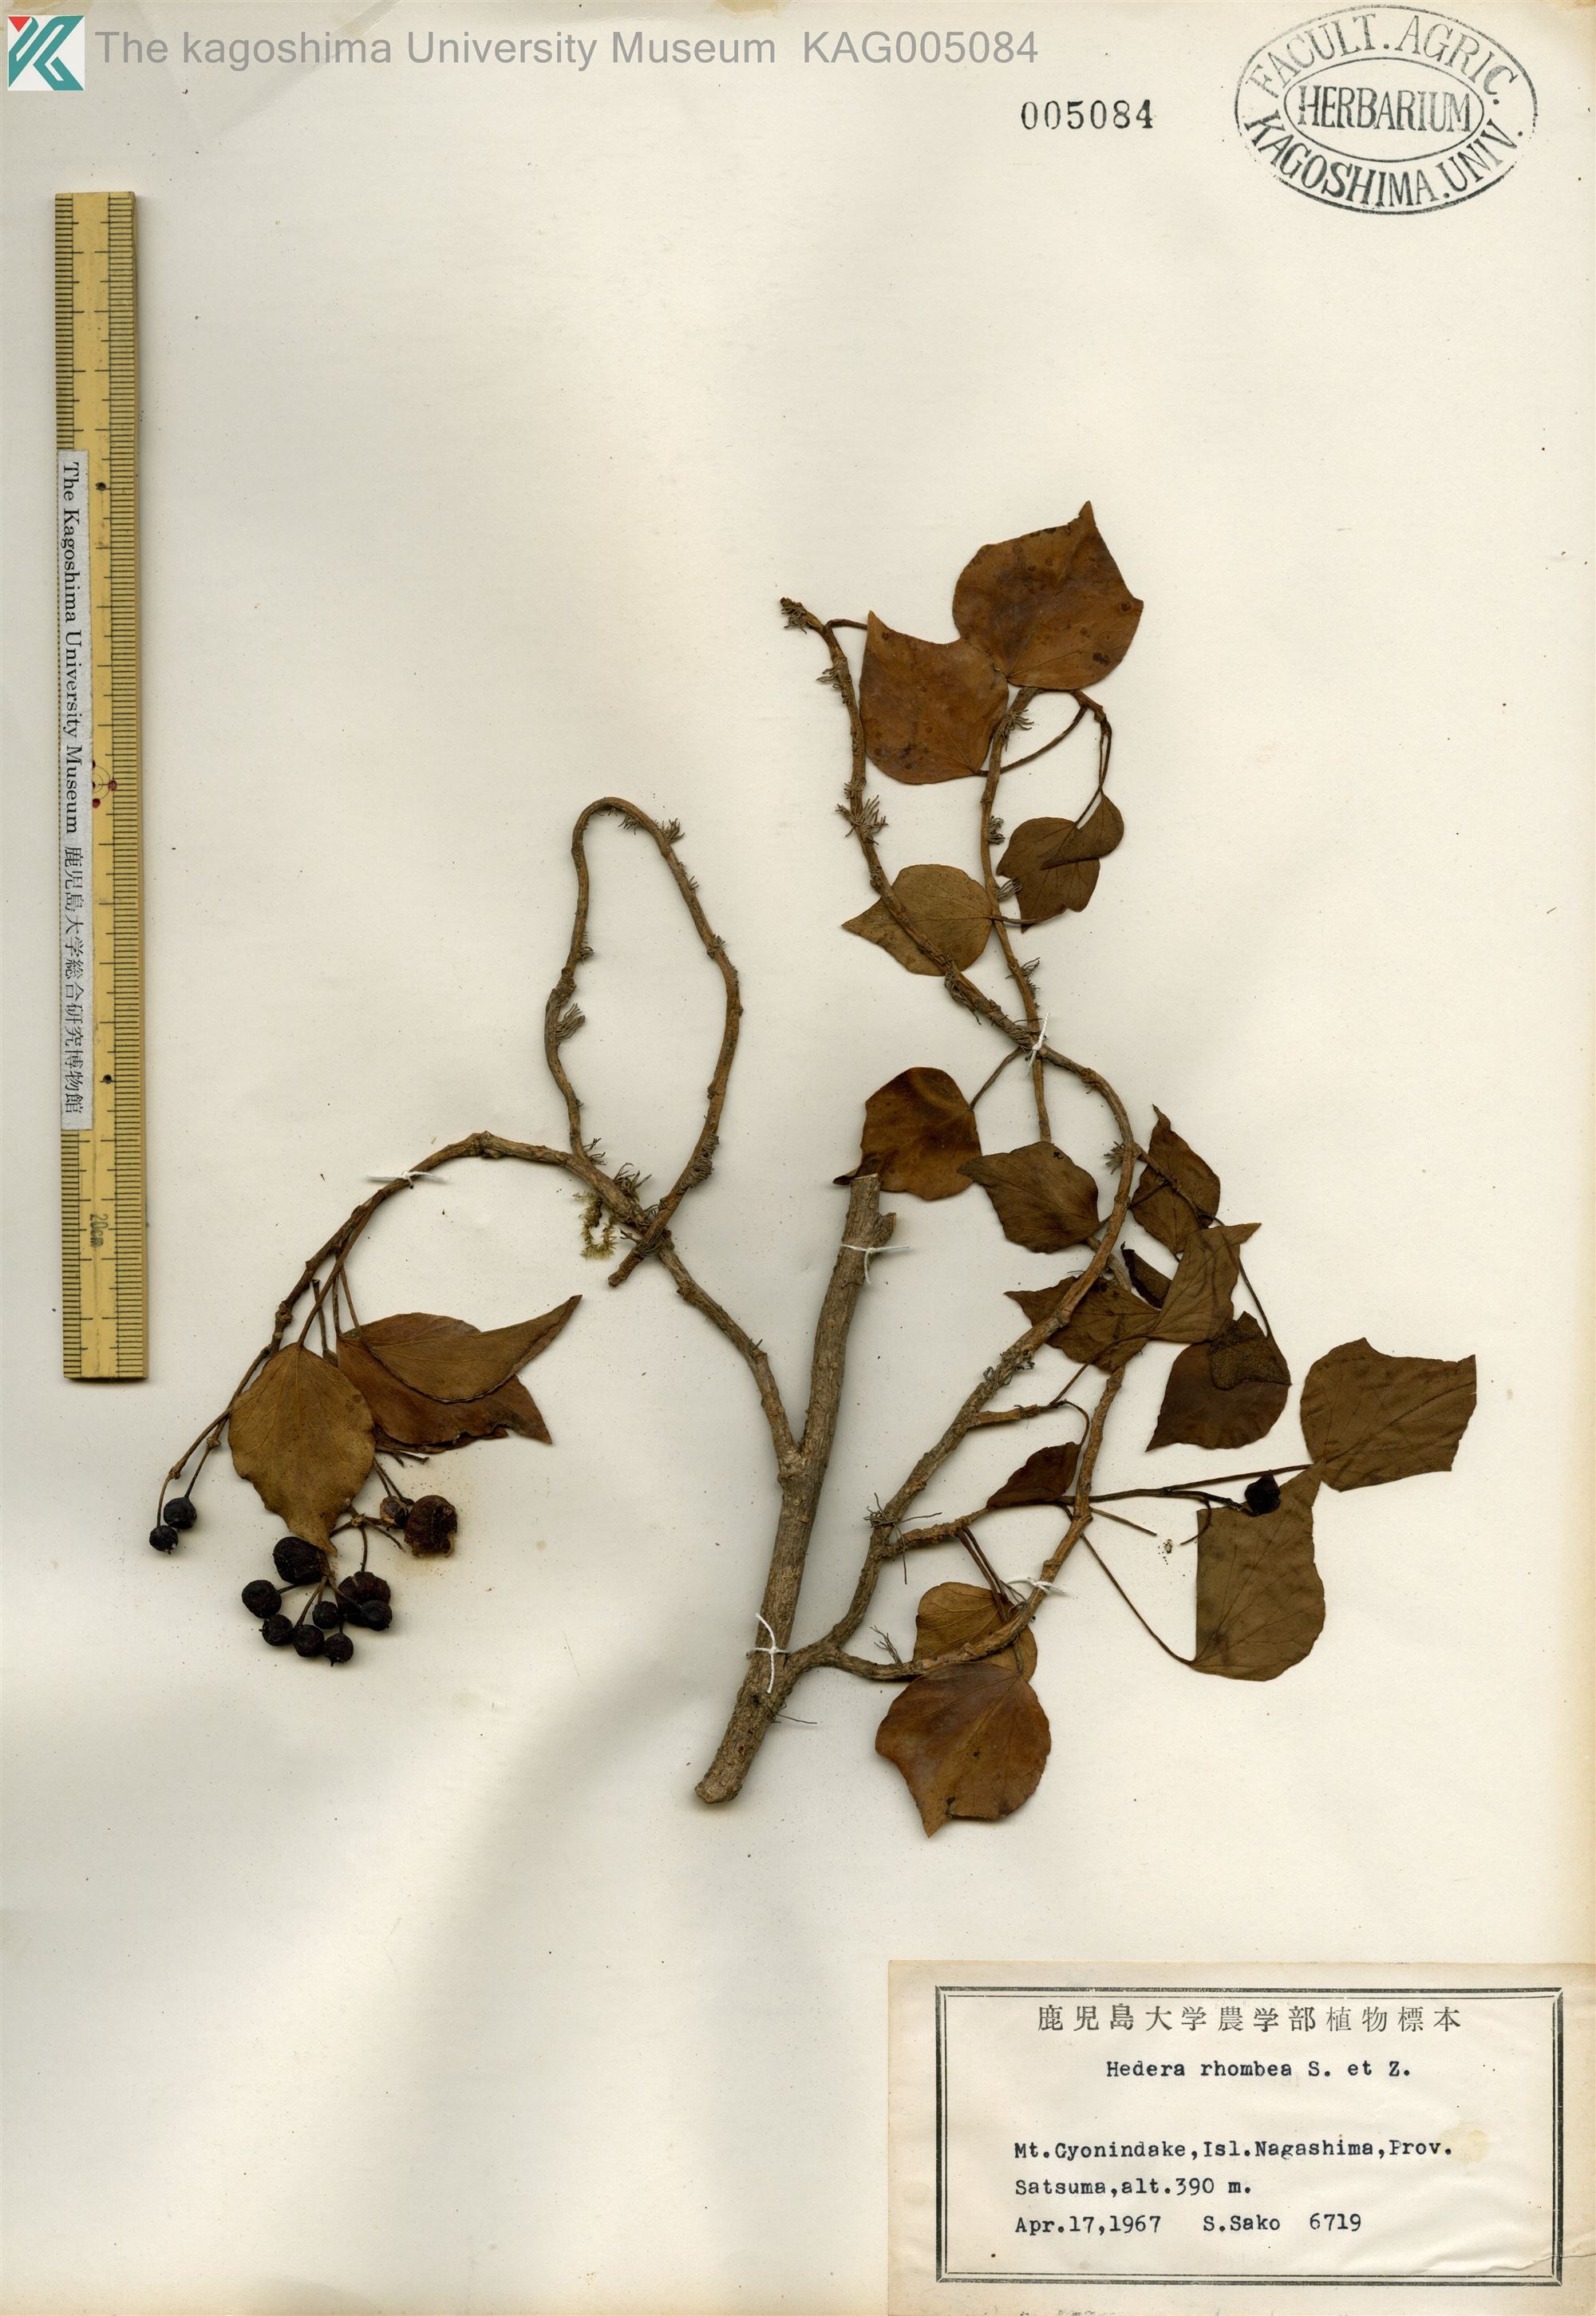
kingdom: Plantae
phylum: Tracheophyta
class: Magnoliopsida
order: Apiales
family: Araliaceae
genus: Hedera
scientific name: Hedera rhombea
